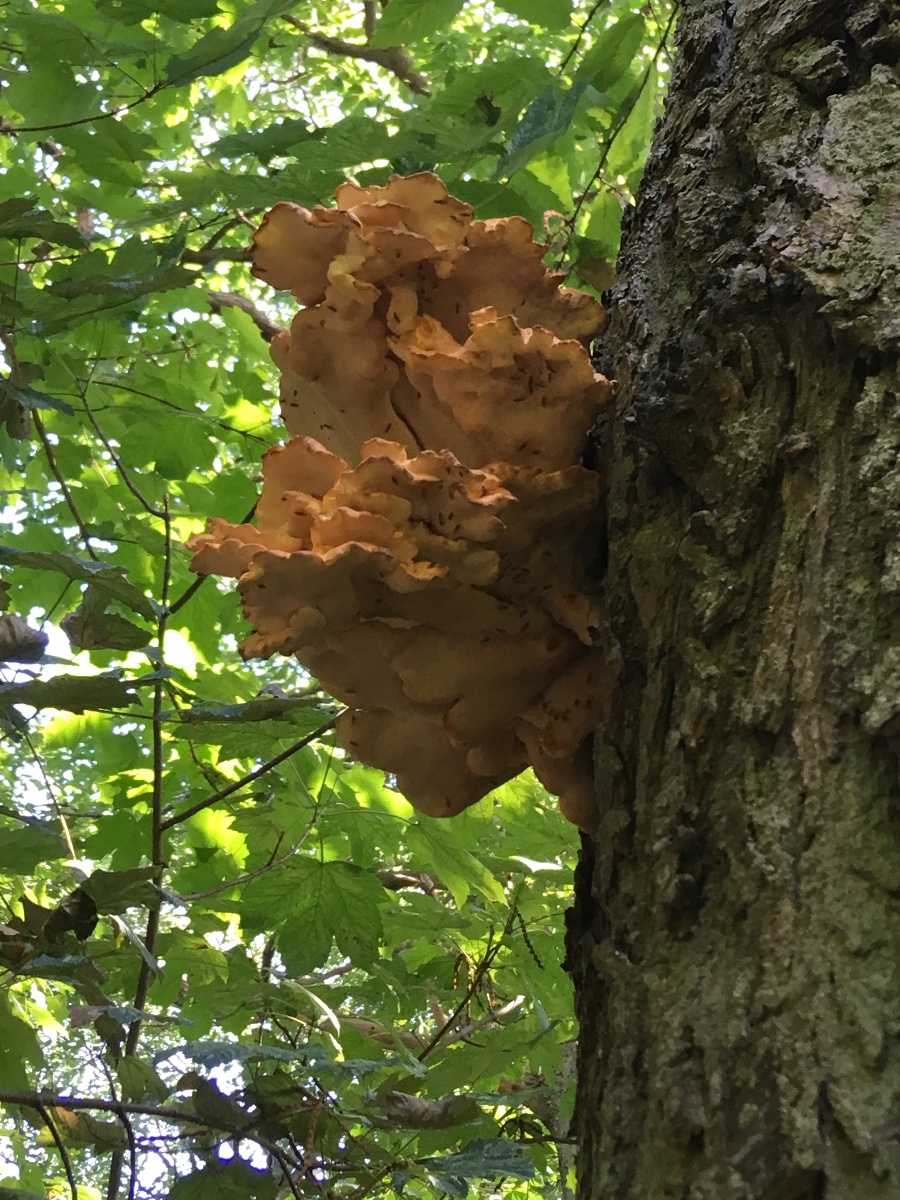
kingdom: Fungi
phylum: Basidiomycota
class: Agaricomycetes
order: Polyporales
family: Laetiporaceae
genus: Laetiporus
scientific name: Laetiporus sulphureus
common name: svovlporesvamp
